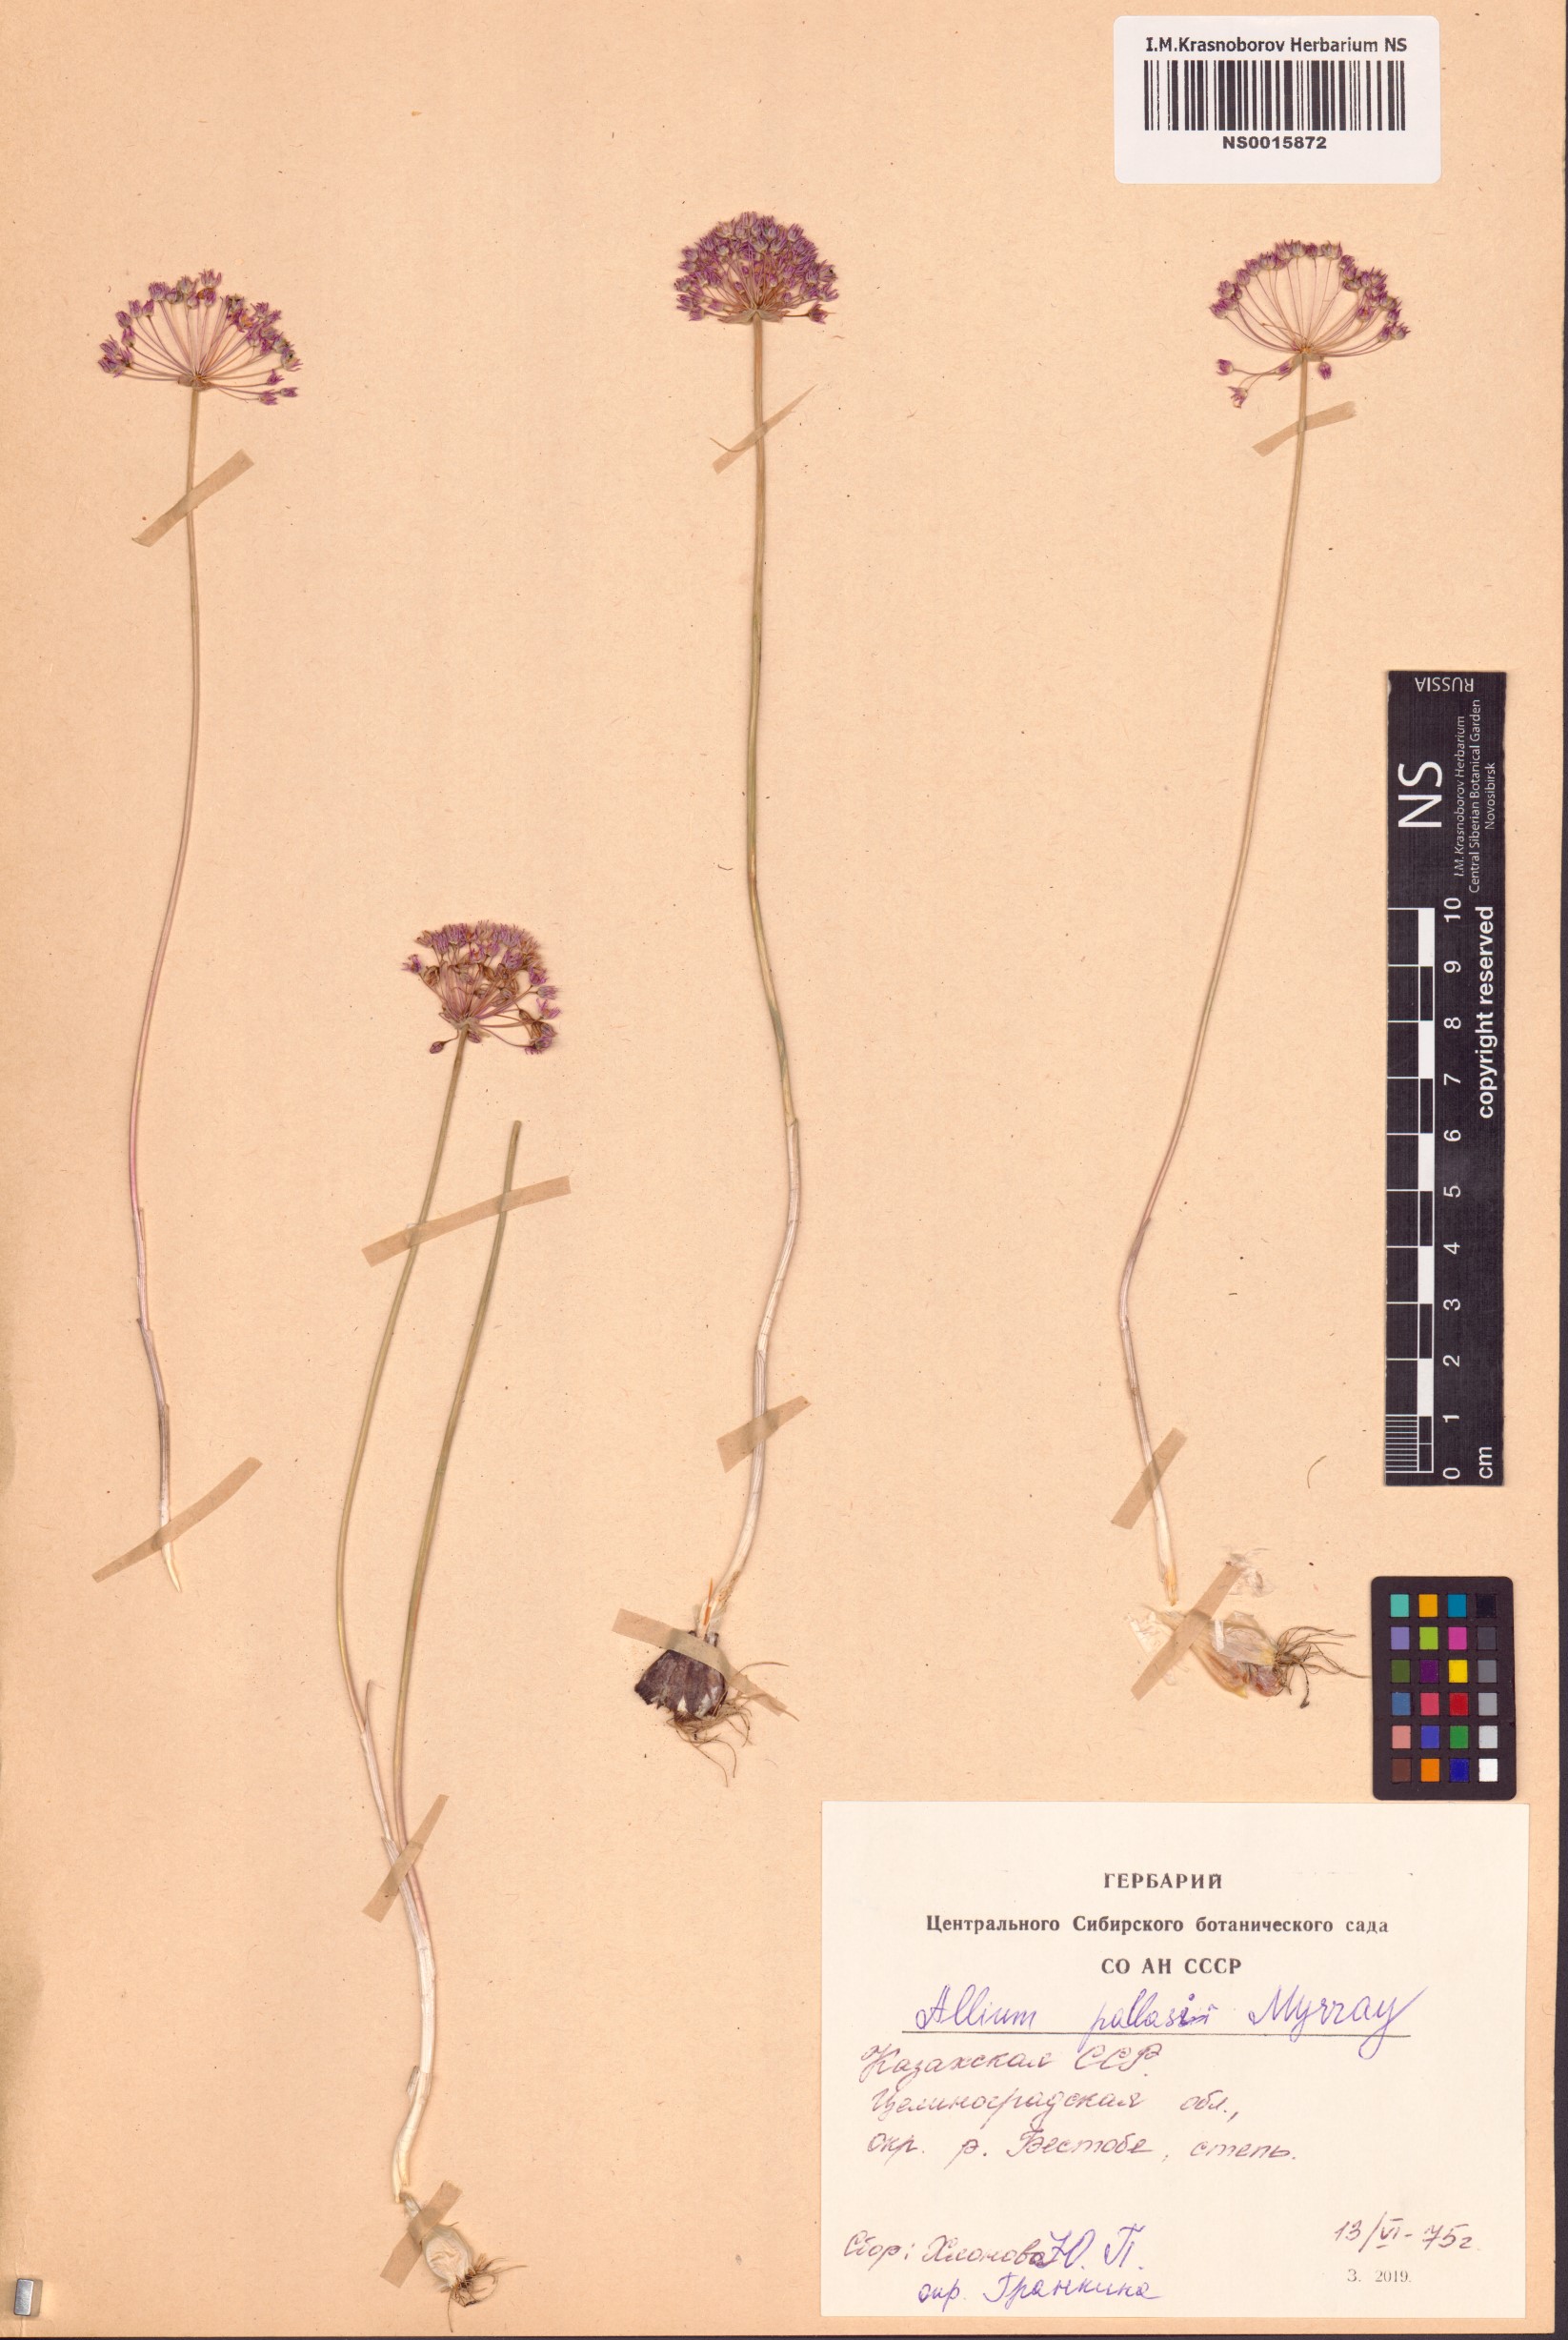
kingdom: Plantae
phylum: Tracheophyta
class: Liliopsida
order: Asparagales
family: Amaryllidaceae
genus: Allium
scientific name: Allium pallasii
